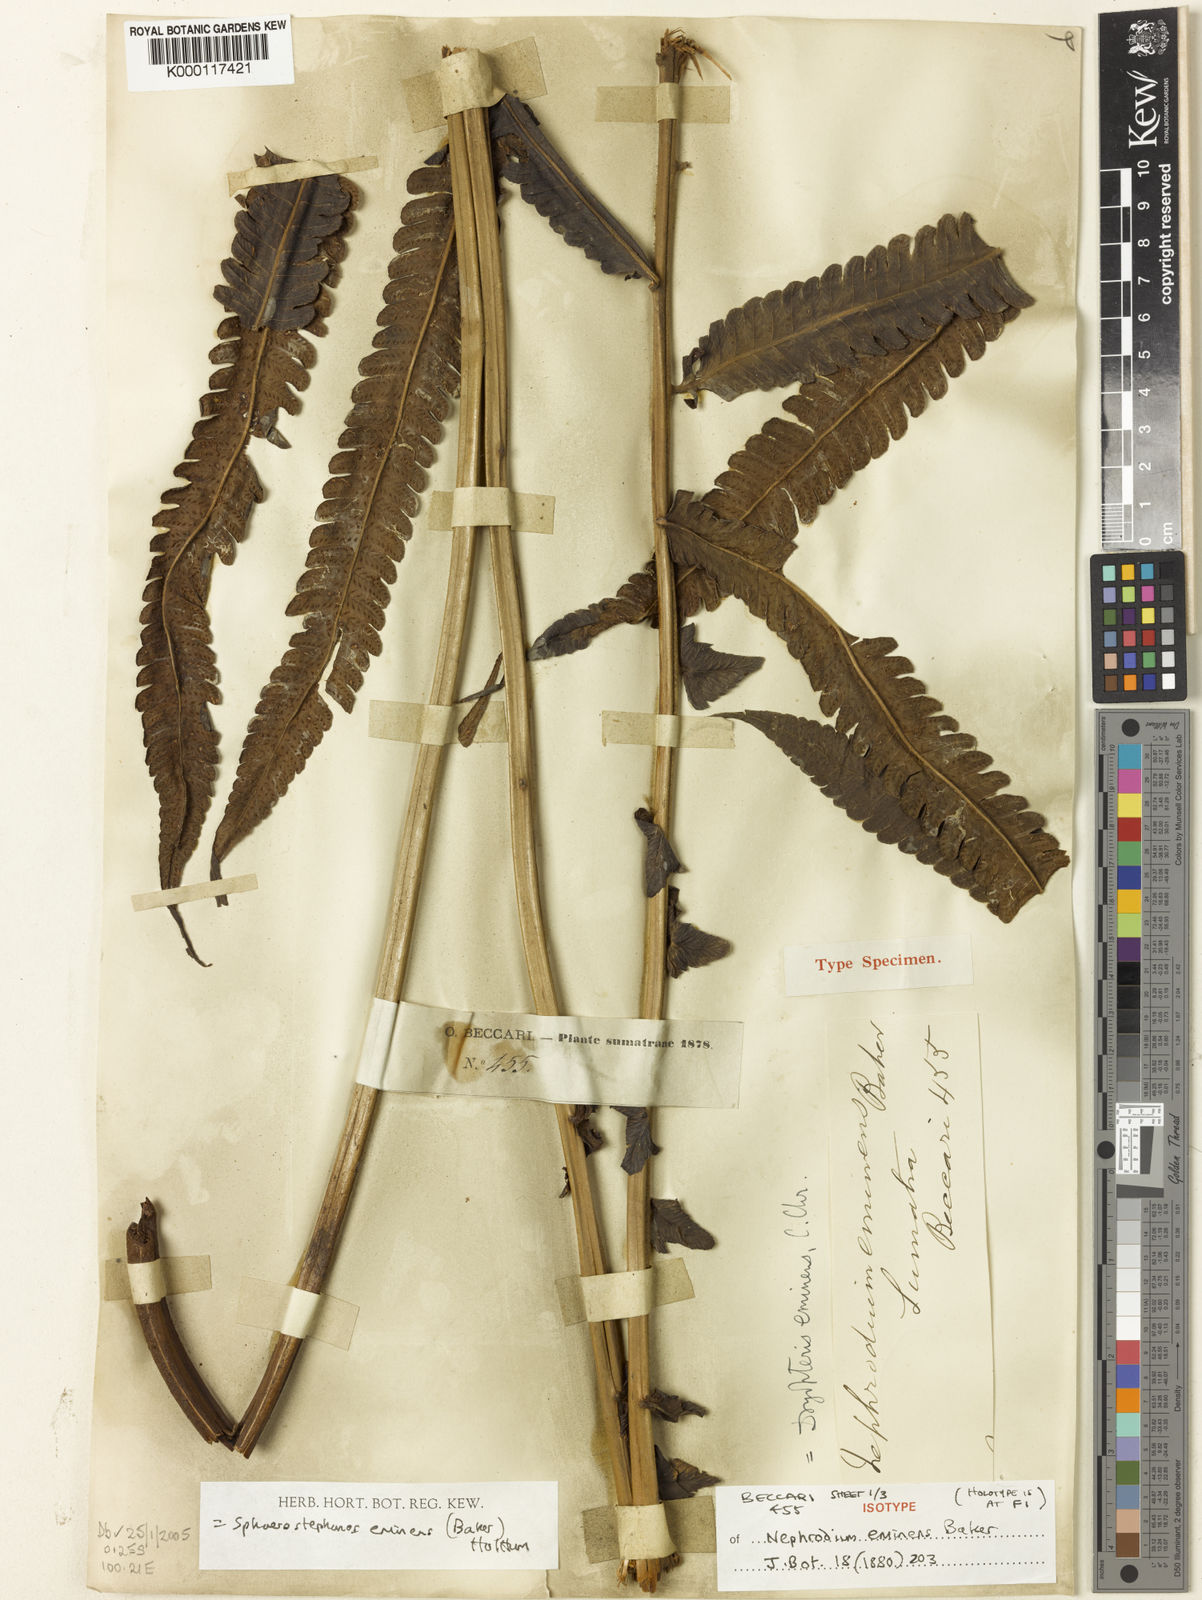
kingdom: Plantae
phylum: Tracheophyta
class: Polypodiopsida
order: Polypodiales
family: Thelypteridaceae
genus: Sphaerostephanos
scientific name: Sphaerostephanos eminens
